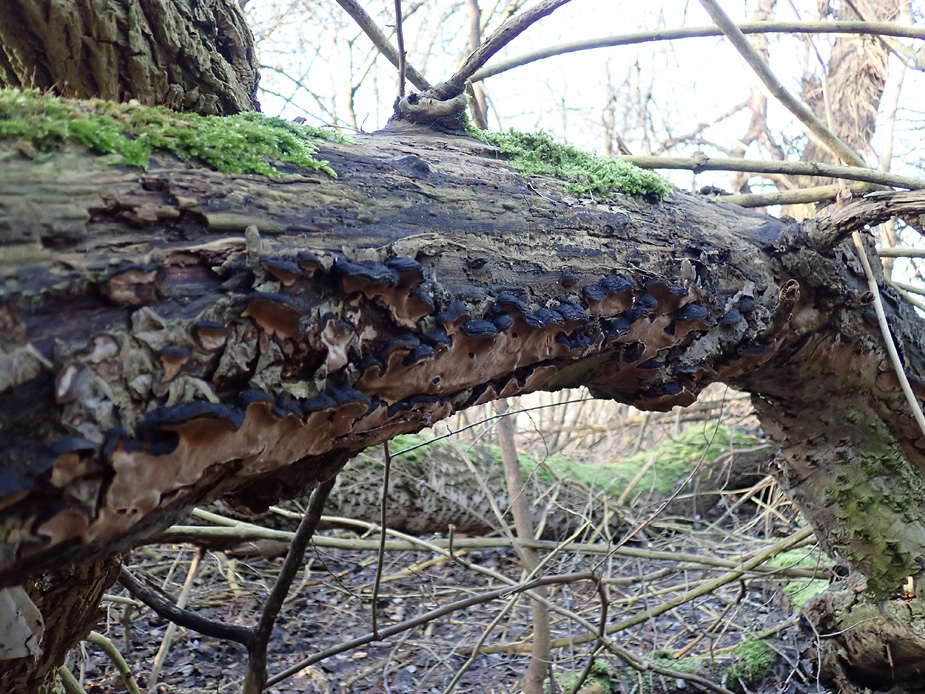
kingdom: Fungi
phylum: Basidiomycota
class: Agaricomycetes
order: Hymenochaetales
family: Hymenochaetaceae
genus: Phellinopsis
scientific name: Phellinopsis conchata
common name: pile-ildporesvamp
